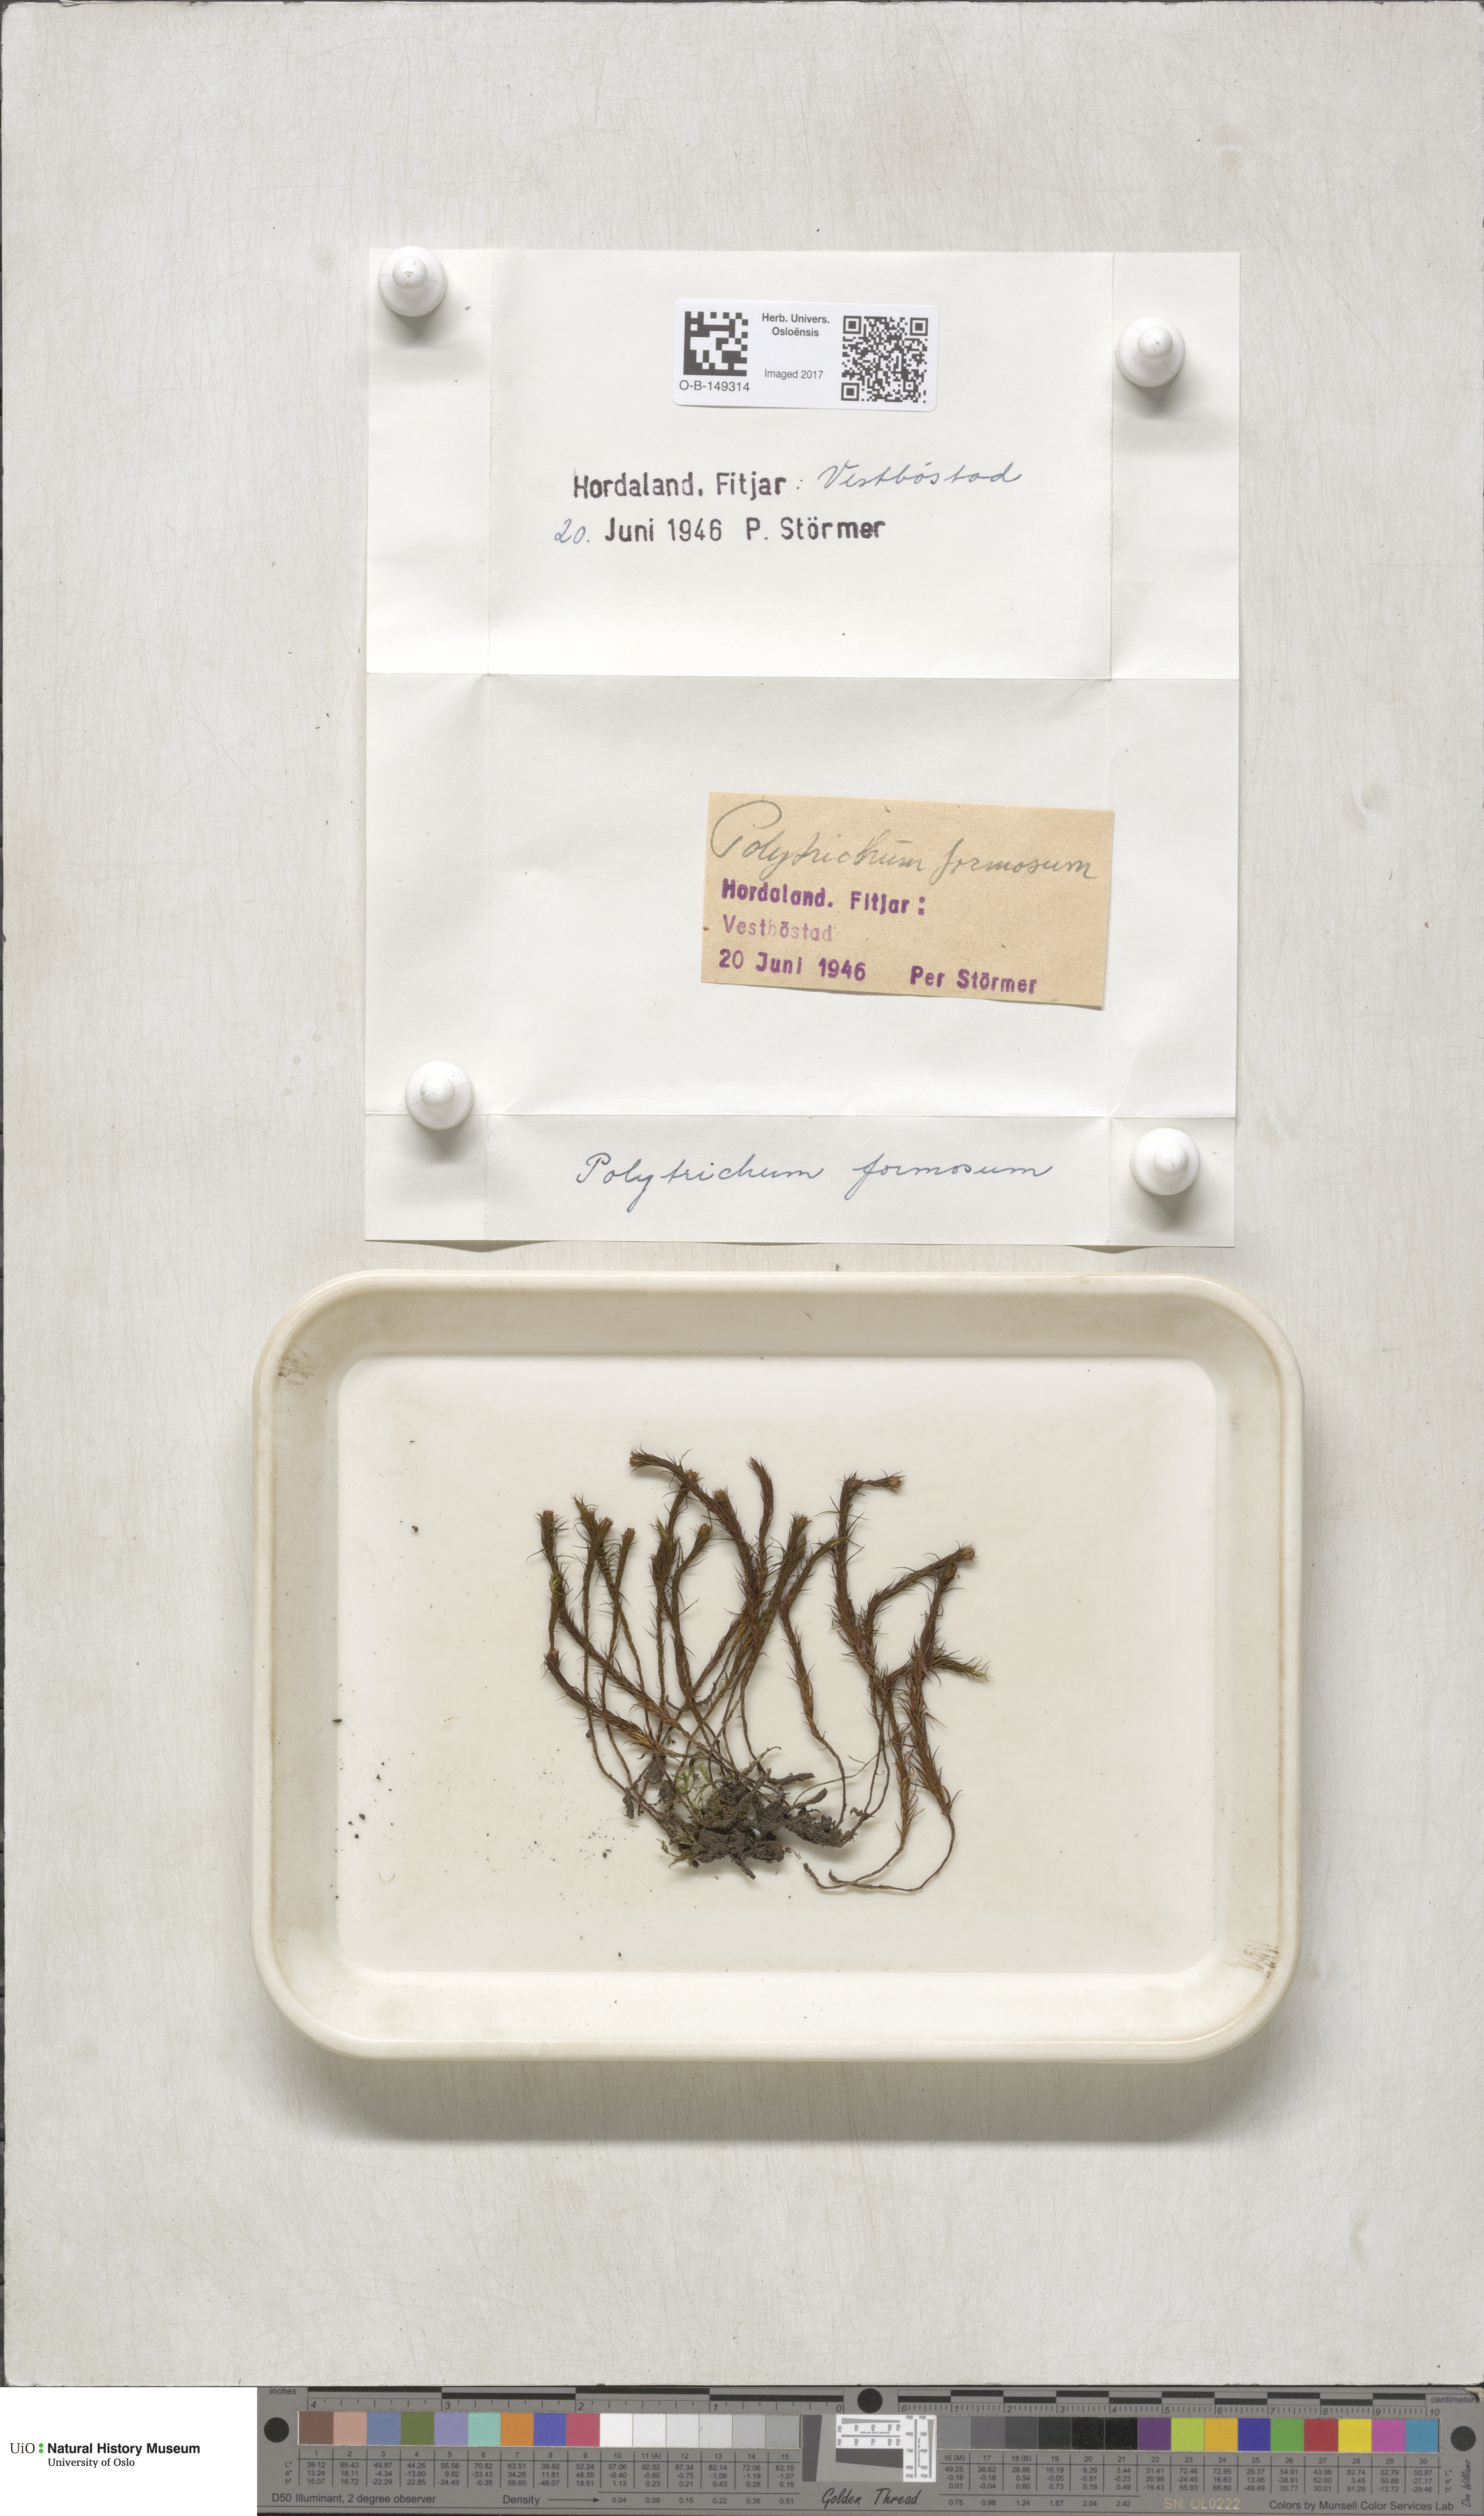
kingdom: Plantae
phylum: Bryophyta
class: Polytrichopsida
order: Polytrichales
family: Polytrichaceae
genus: Polytrichum
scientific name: Polytrichum formosum
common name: Bank haircap moss
